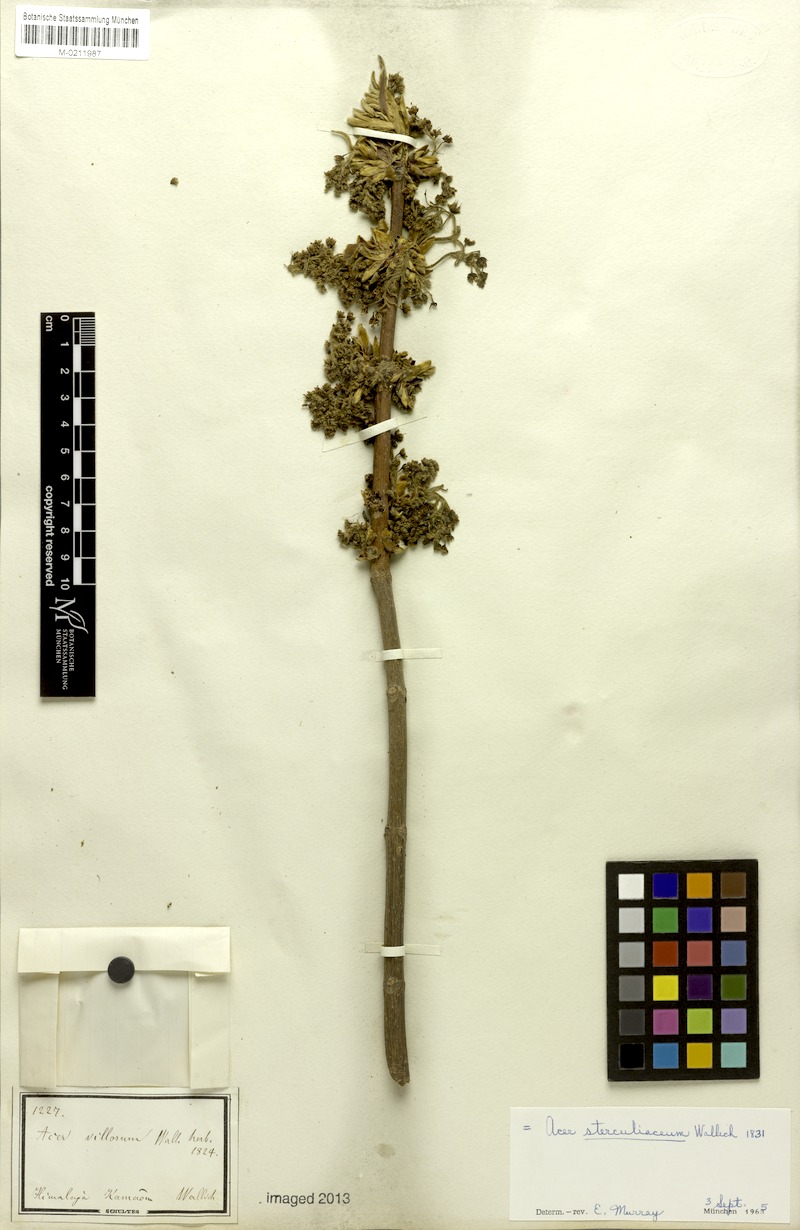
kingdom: Plantae
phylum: Tracheophyta
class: Magnoliopsida
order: Sapindales
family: Sapindaceae
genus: Acer
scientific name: Acer sterculiaceum
